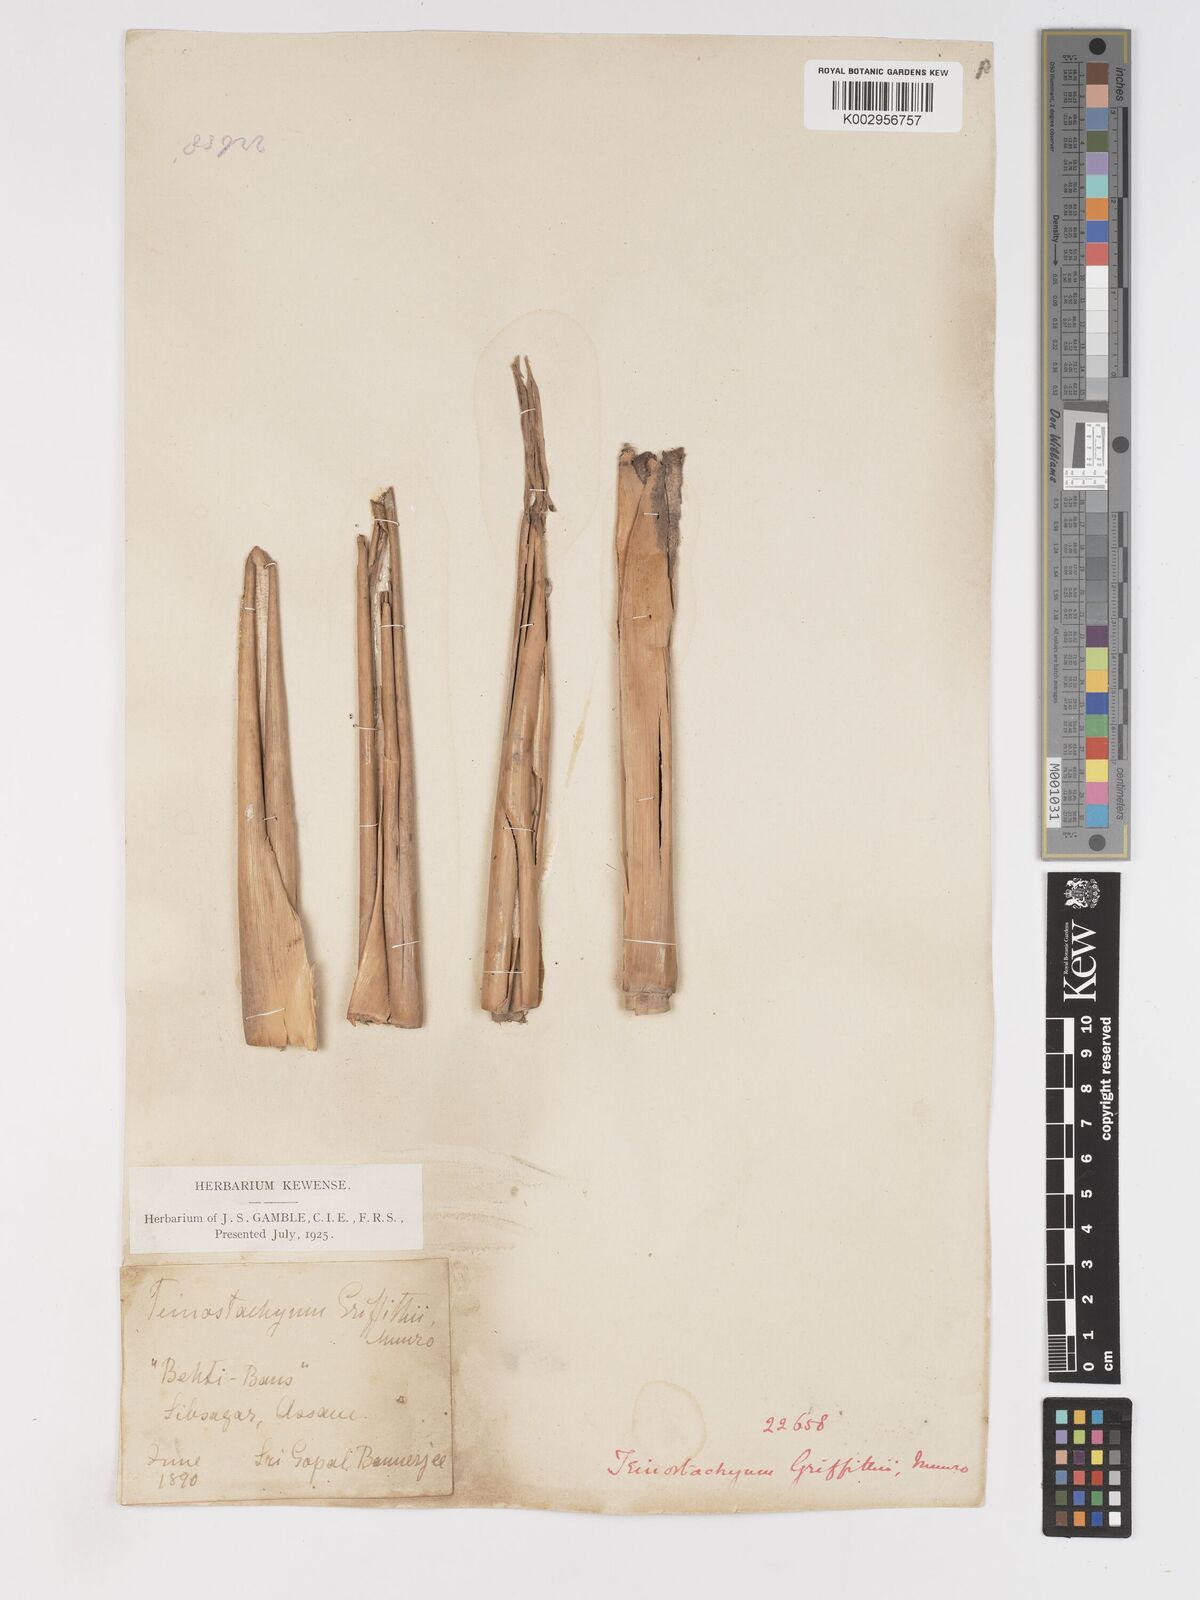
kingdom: Plantae
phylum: Tracheophyta
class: Liliopsida
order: Poales
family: Poaceae
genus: Schizostachyum
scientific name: Schizostachyum griffithii
